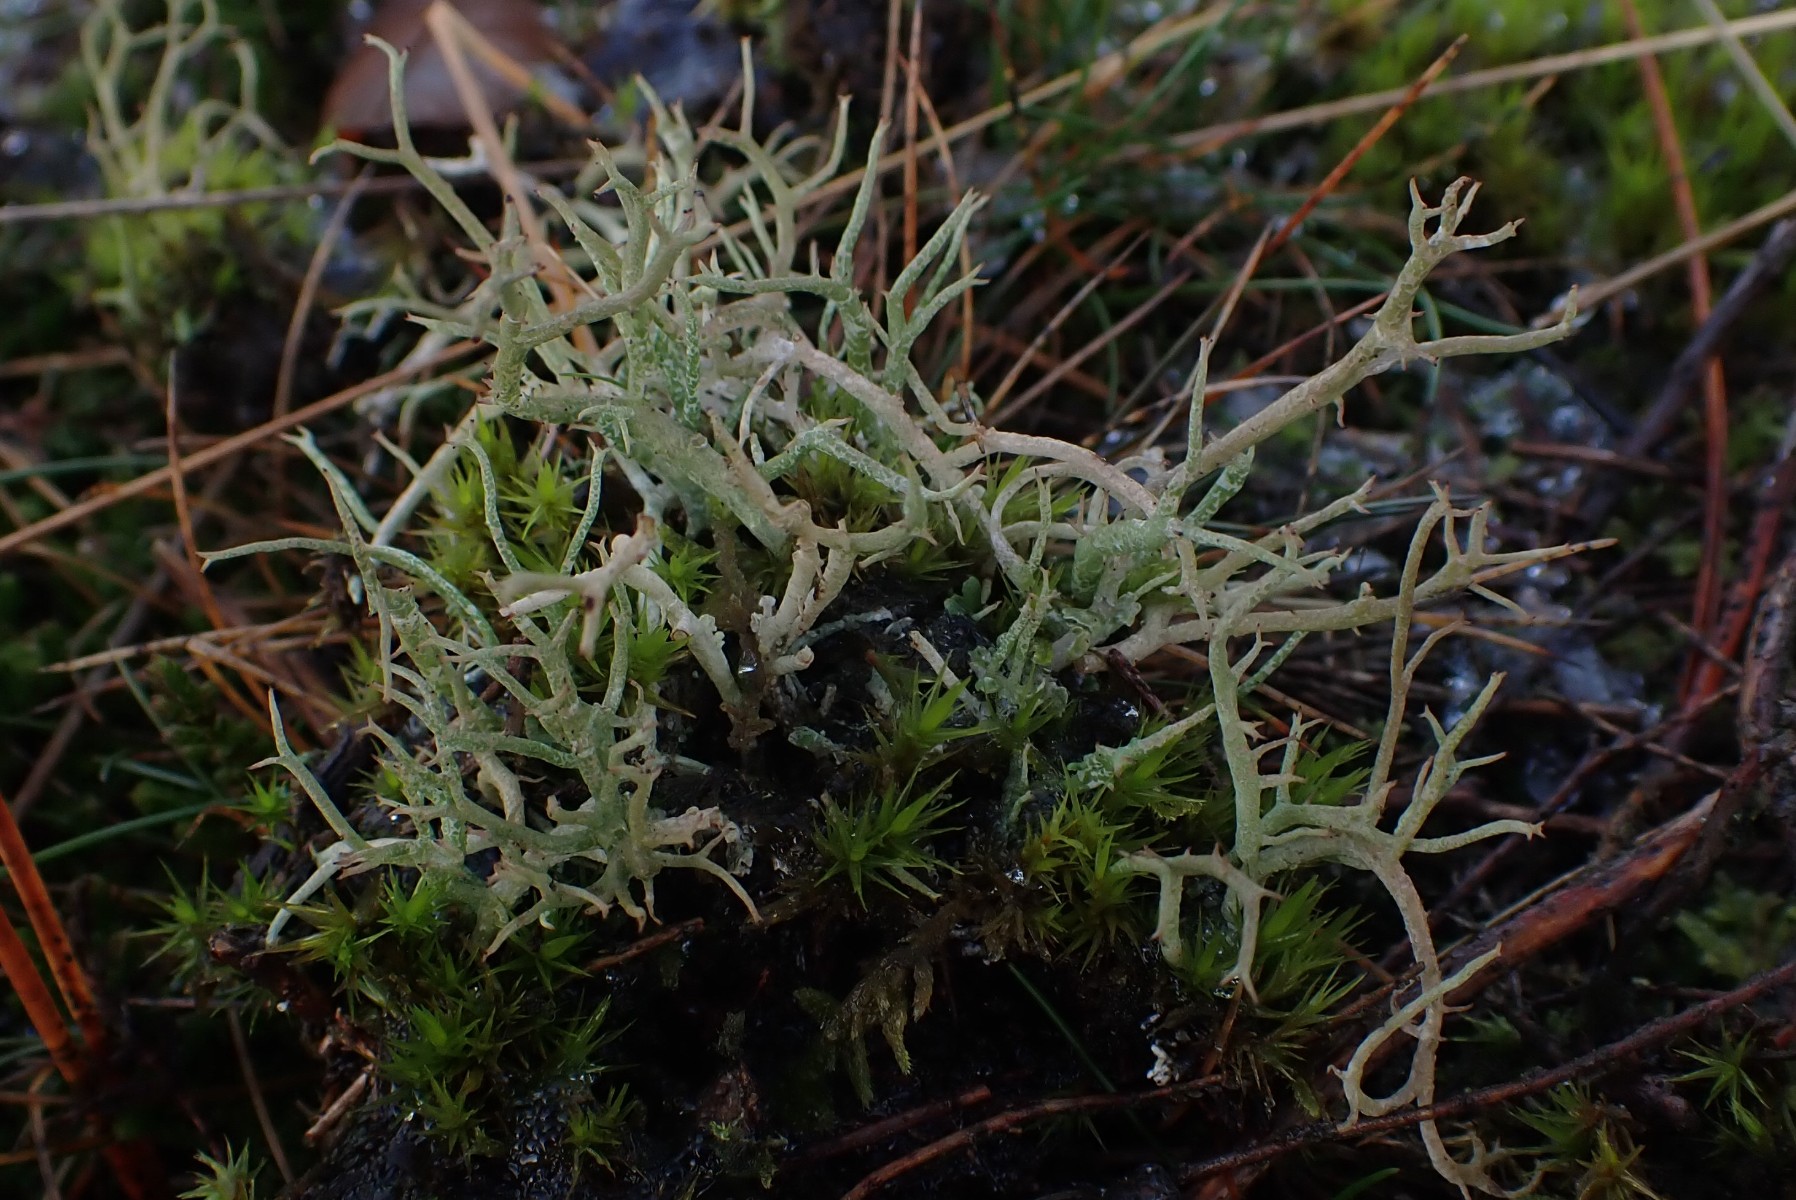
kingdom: Fungi
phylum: Ascomycota
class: Lecanoromycetes
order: Lecanorales
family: Cladoniaceae
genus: Cladonia
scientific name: Cladonia furcata
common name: kløftet bægerlav
